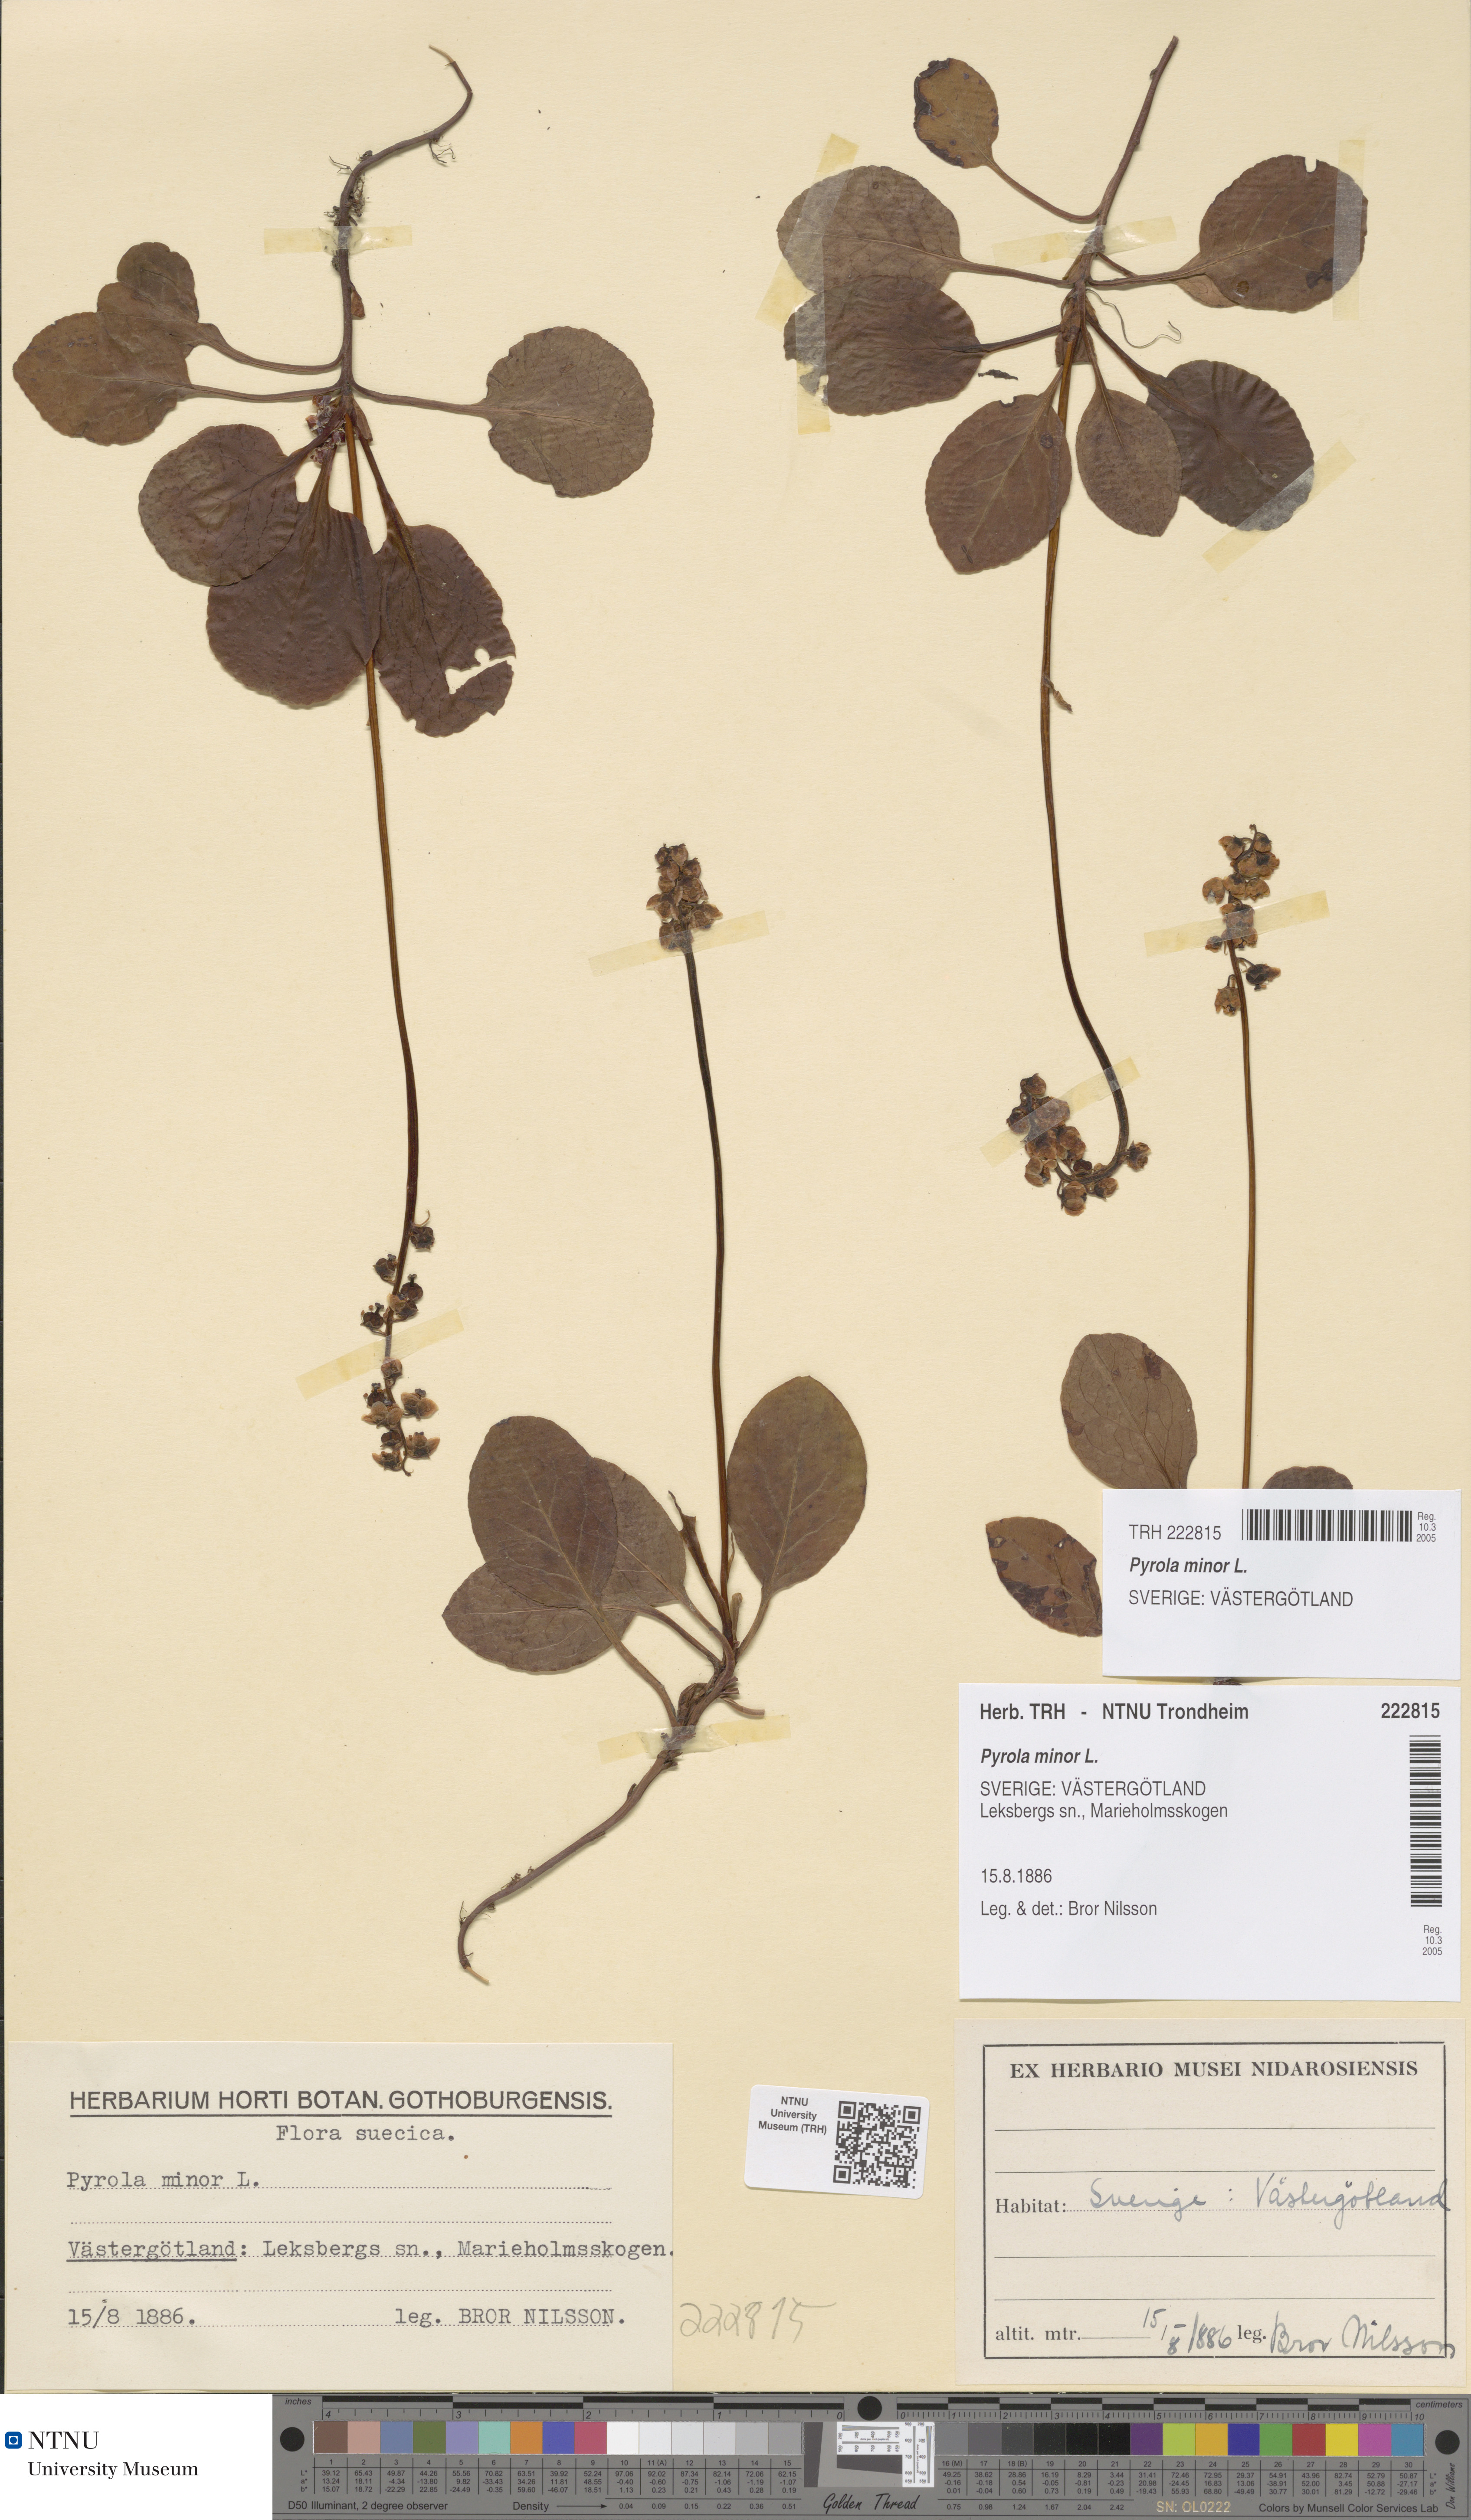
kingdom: Plantae
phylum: Tracheophyta
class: Magnoliopsida
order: Ericales
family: Ericaceae
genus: Pyrola
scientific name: Pyrola minor
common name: Common wintergreen
